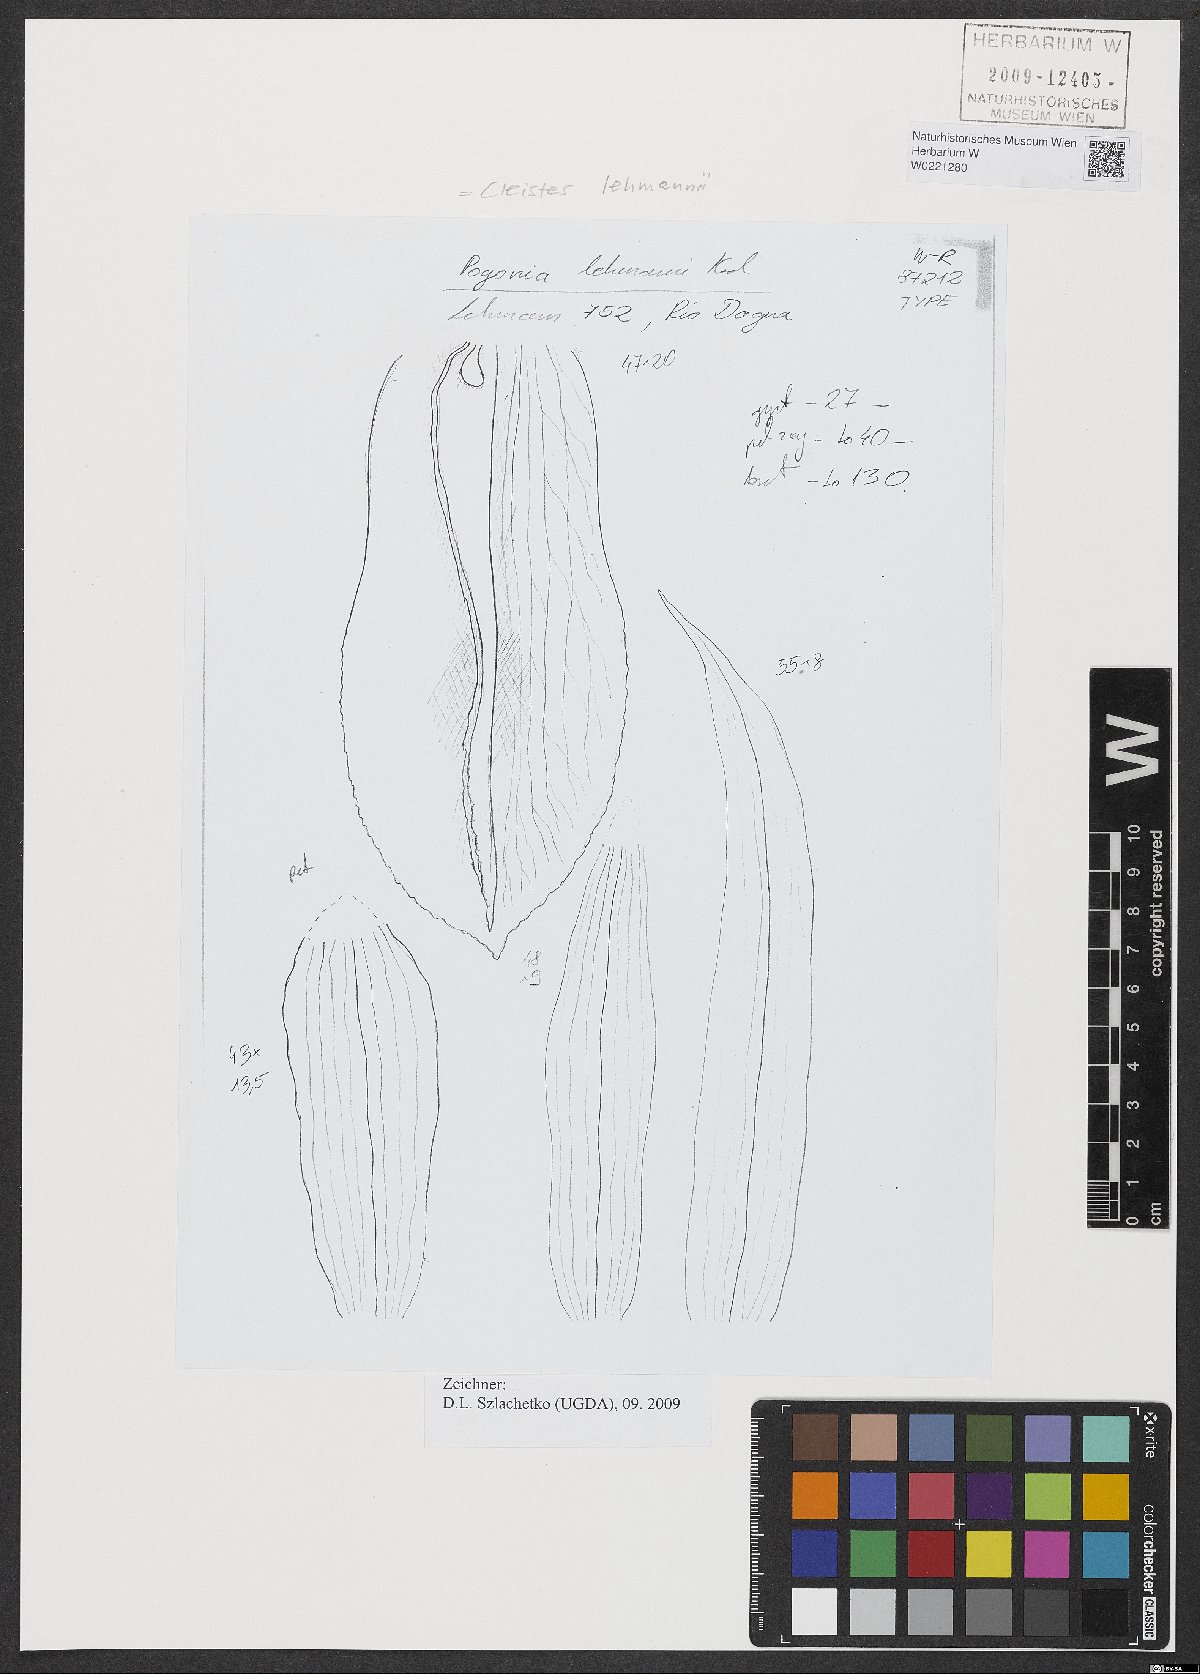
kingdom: Plantae
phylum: Tracheophyta
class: Liliopsida
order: Asparagales
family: Orchidaceae
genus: Cleistes
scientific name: Cleistes lehmannii
